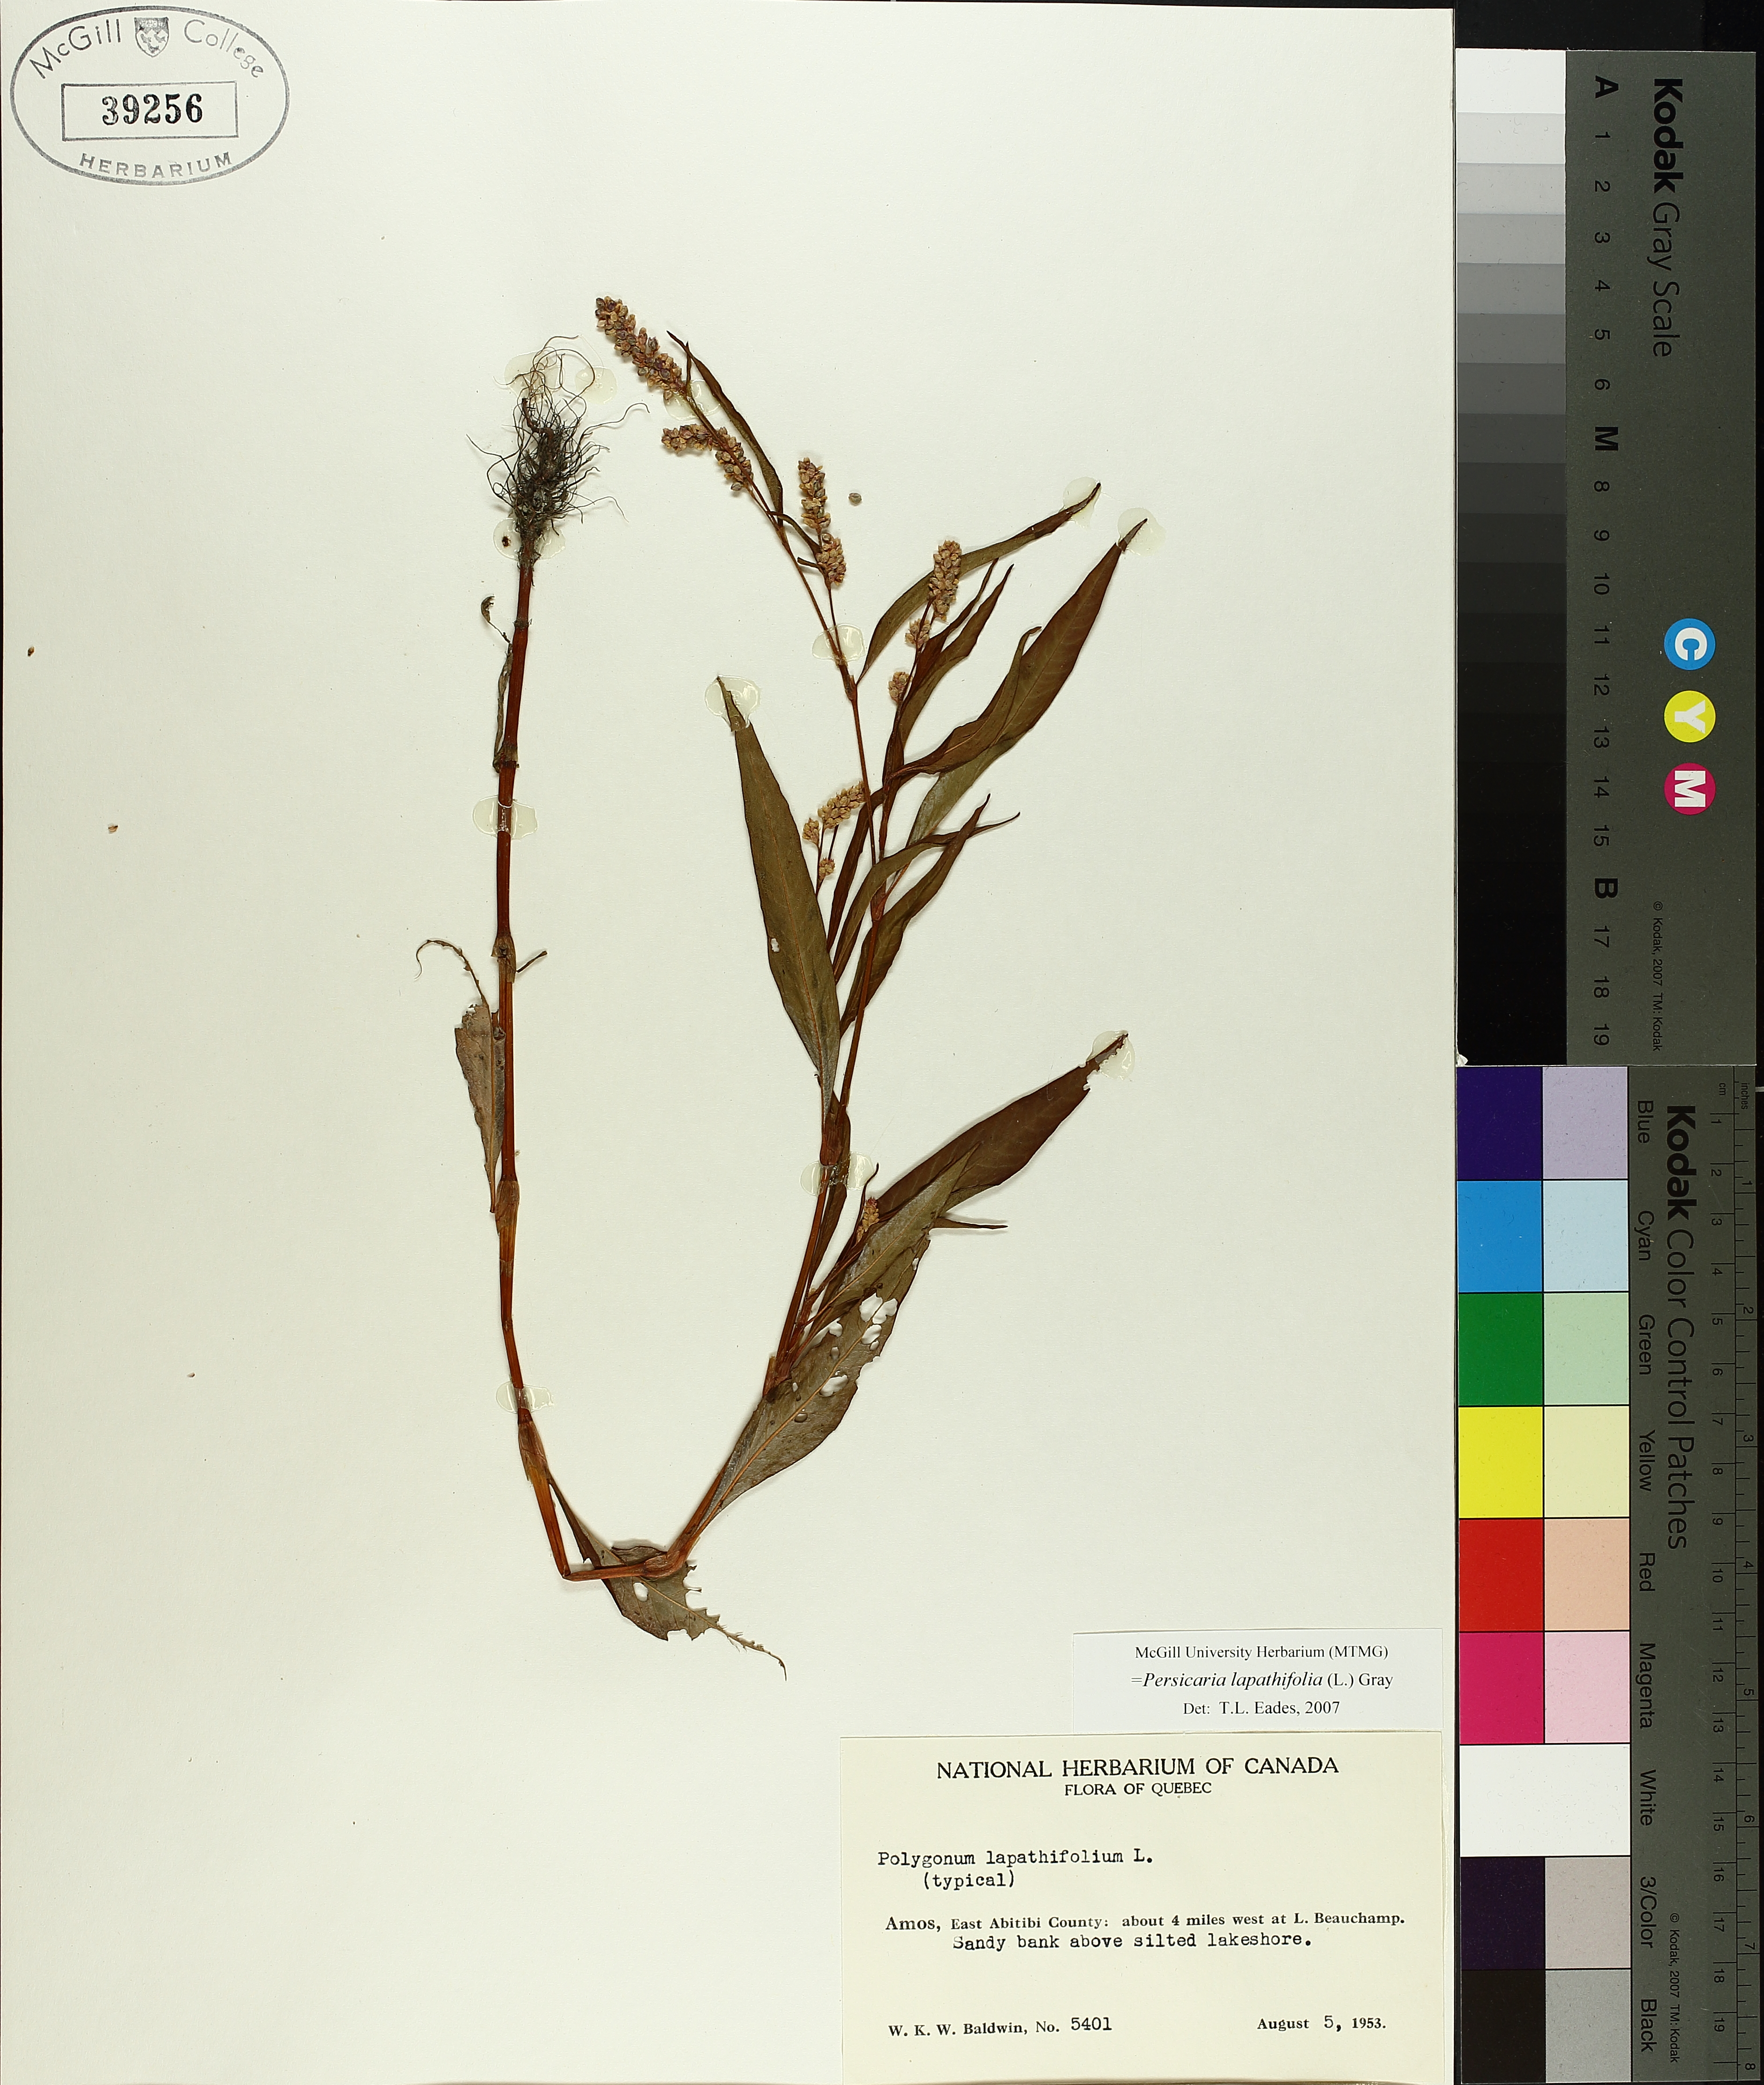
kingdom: Plantae
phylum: Tracheophyta
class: Magnoliopsida
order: Caryophyllales
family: Polygonaceae
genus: Persicaria
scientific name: Persicaria lapathifolia
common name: Curlytop knotweed
